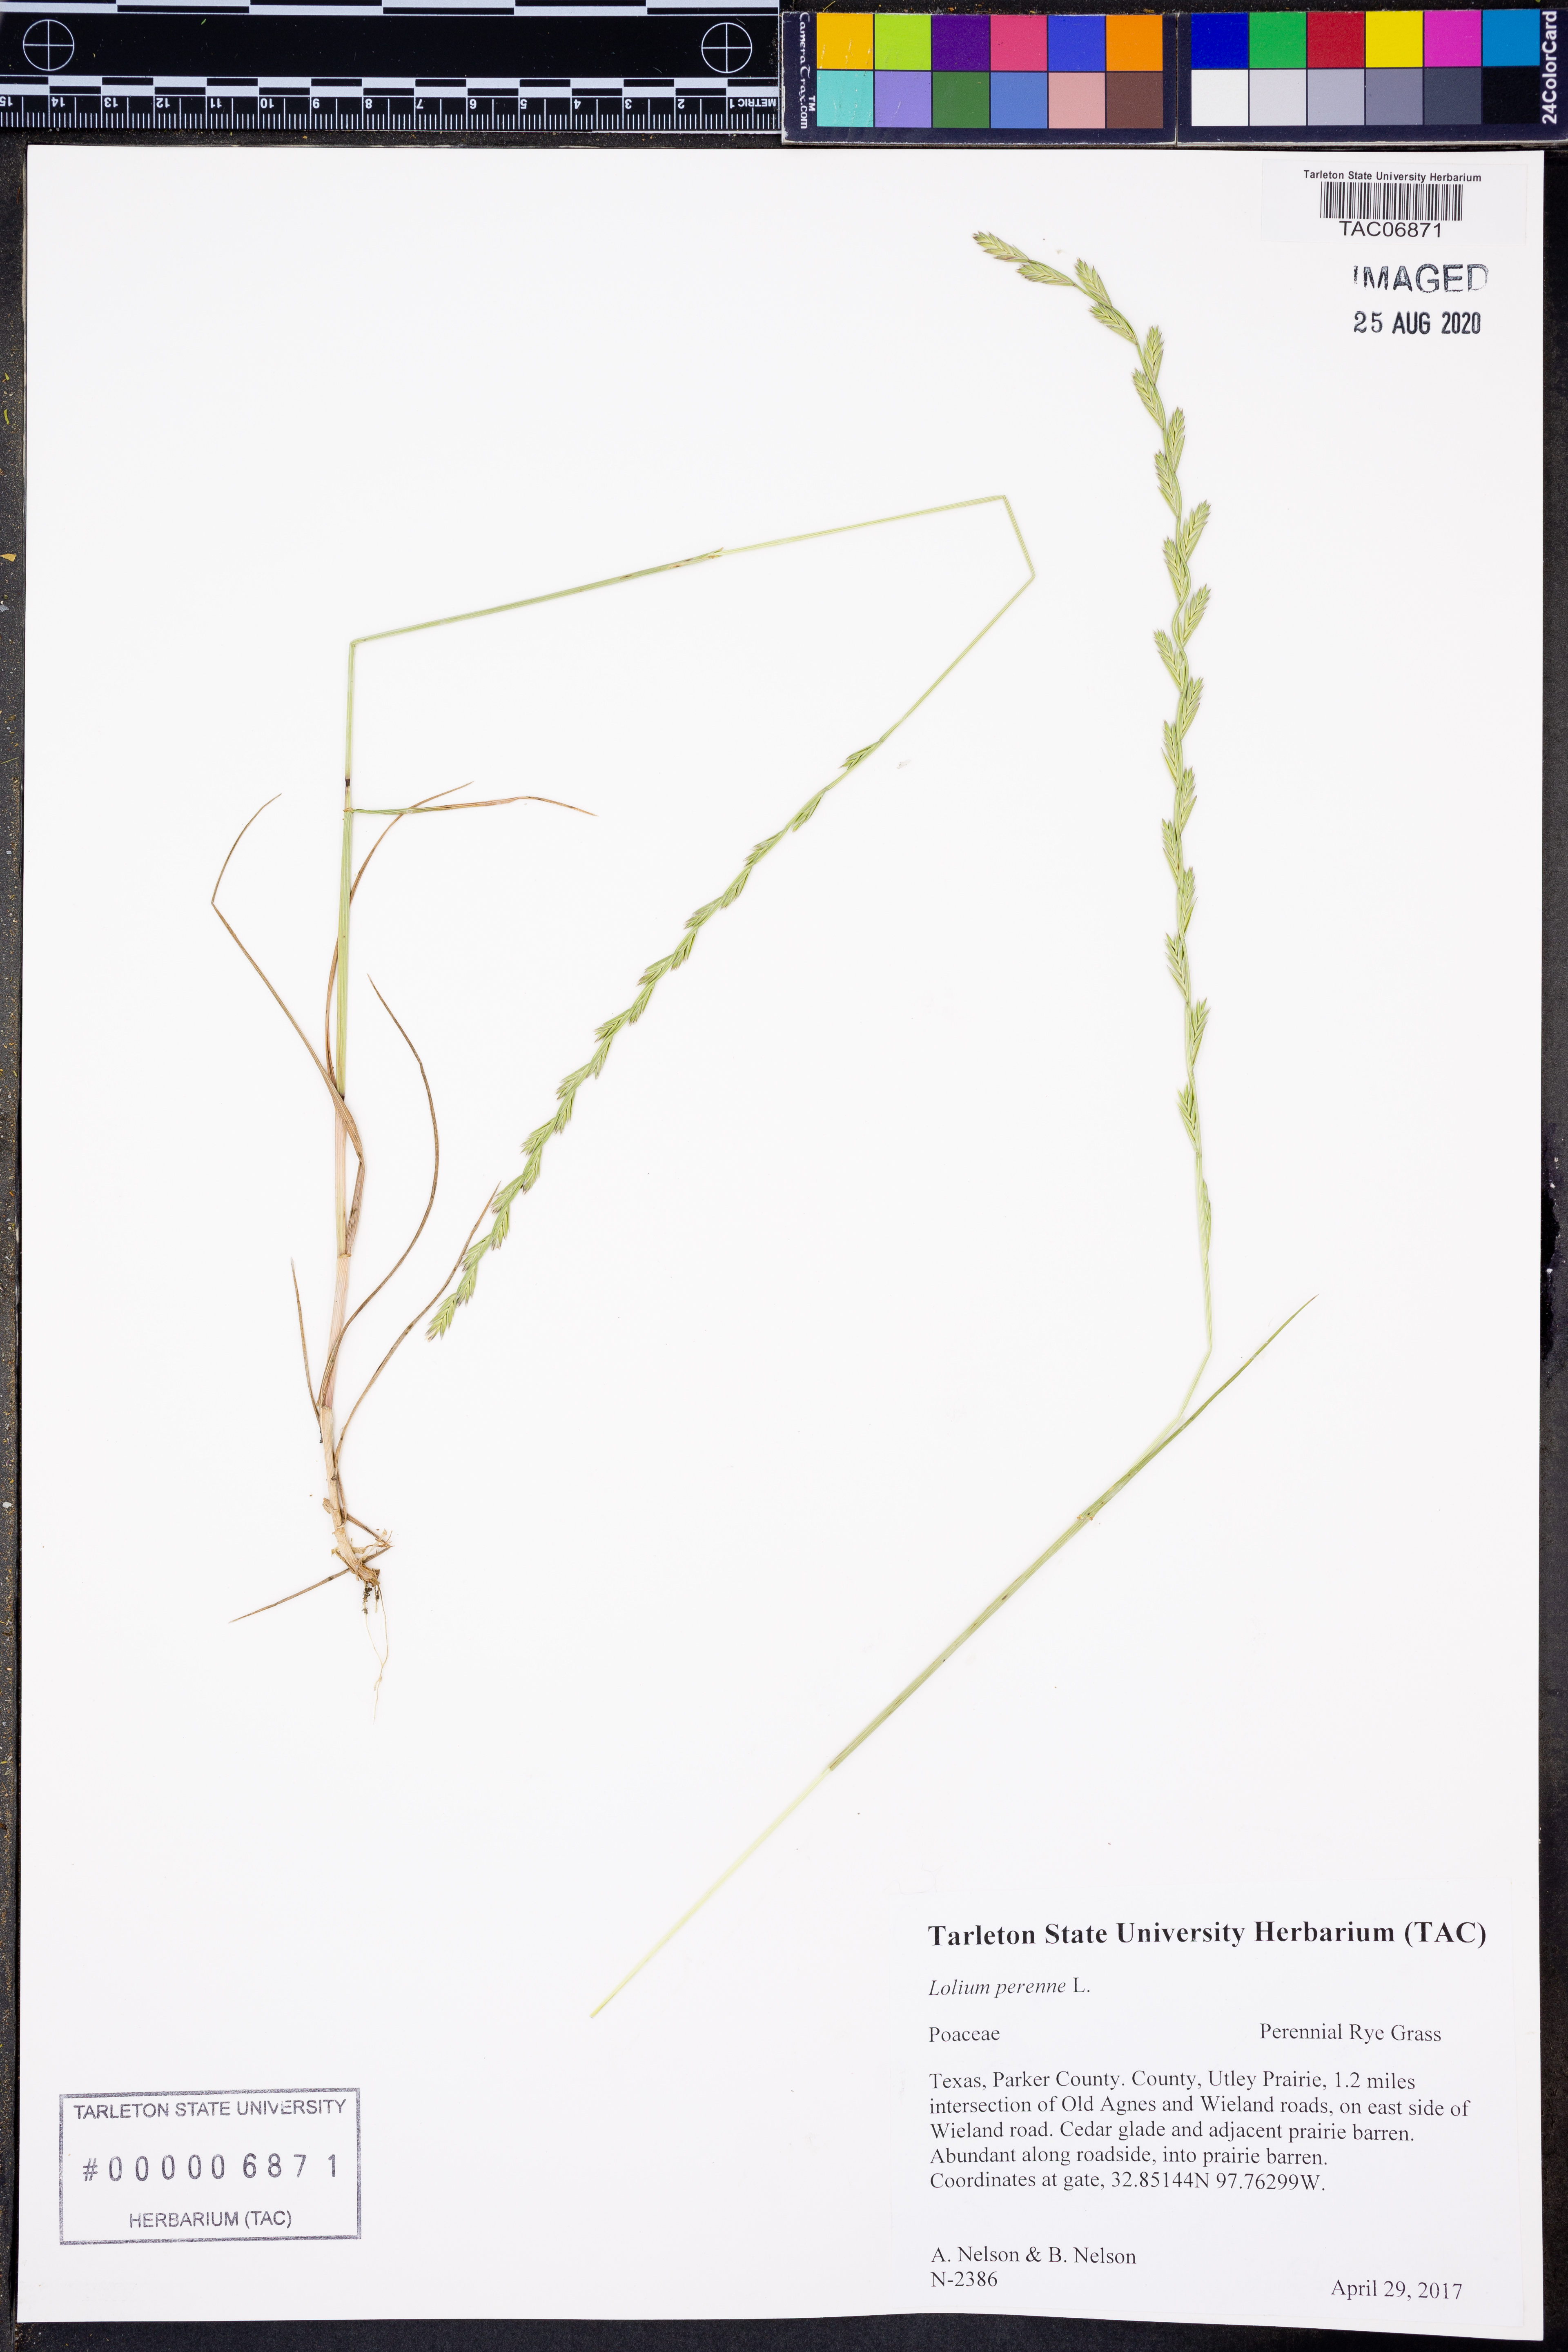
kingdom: Plantae
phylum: Tracheophyta
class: Liliopsida
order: Poales
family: Poaceae
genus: Lolium
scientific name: Lolium perenne
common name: Perennial ryegrass
